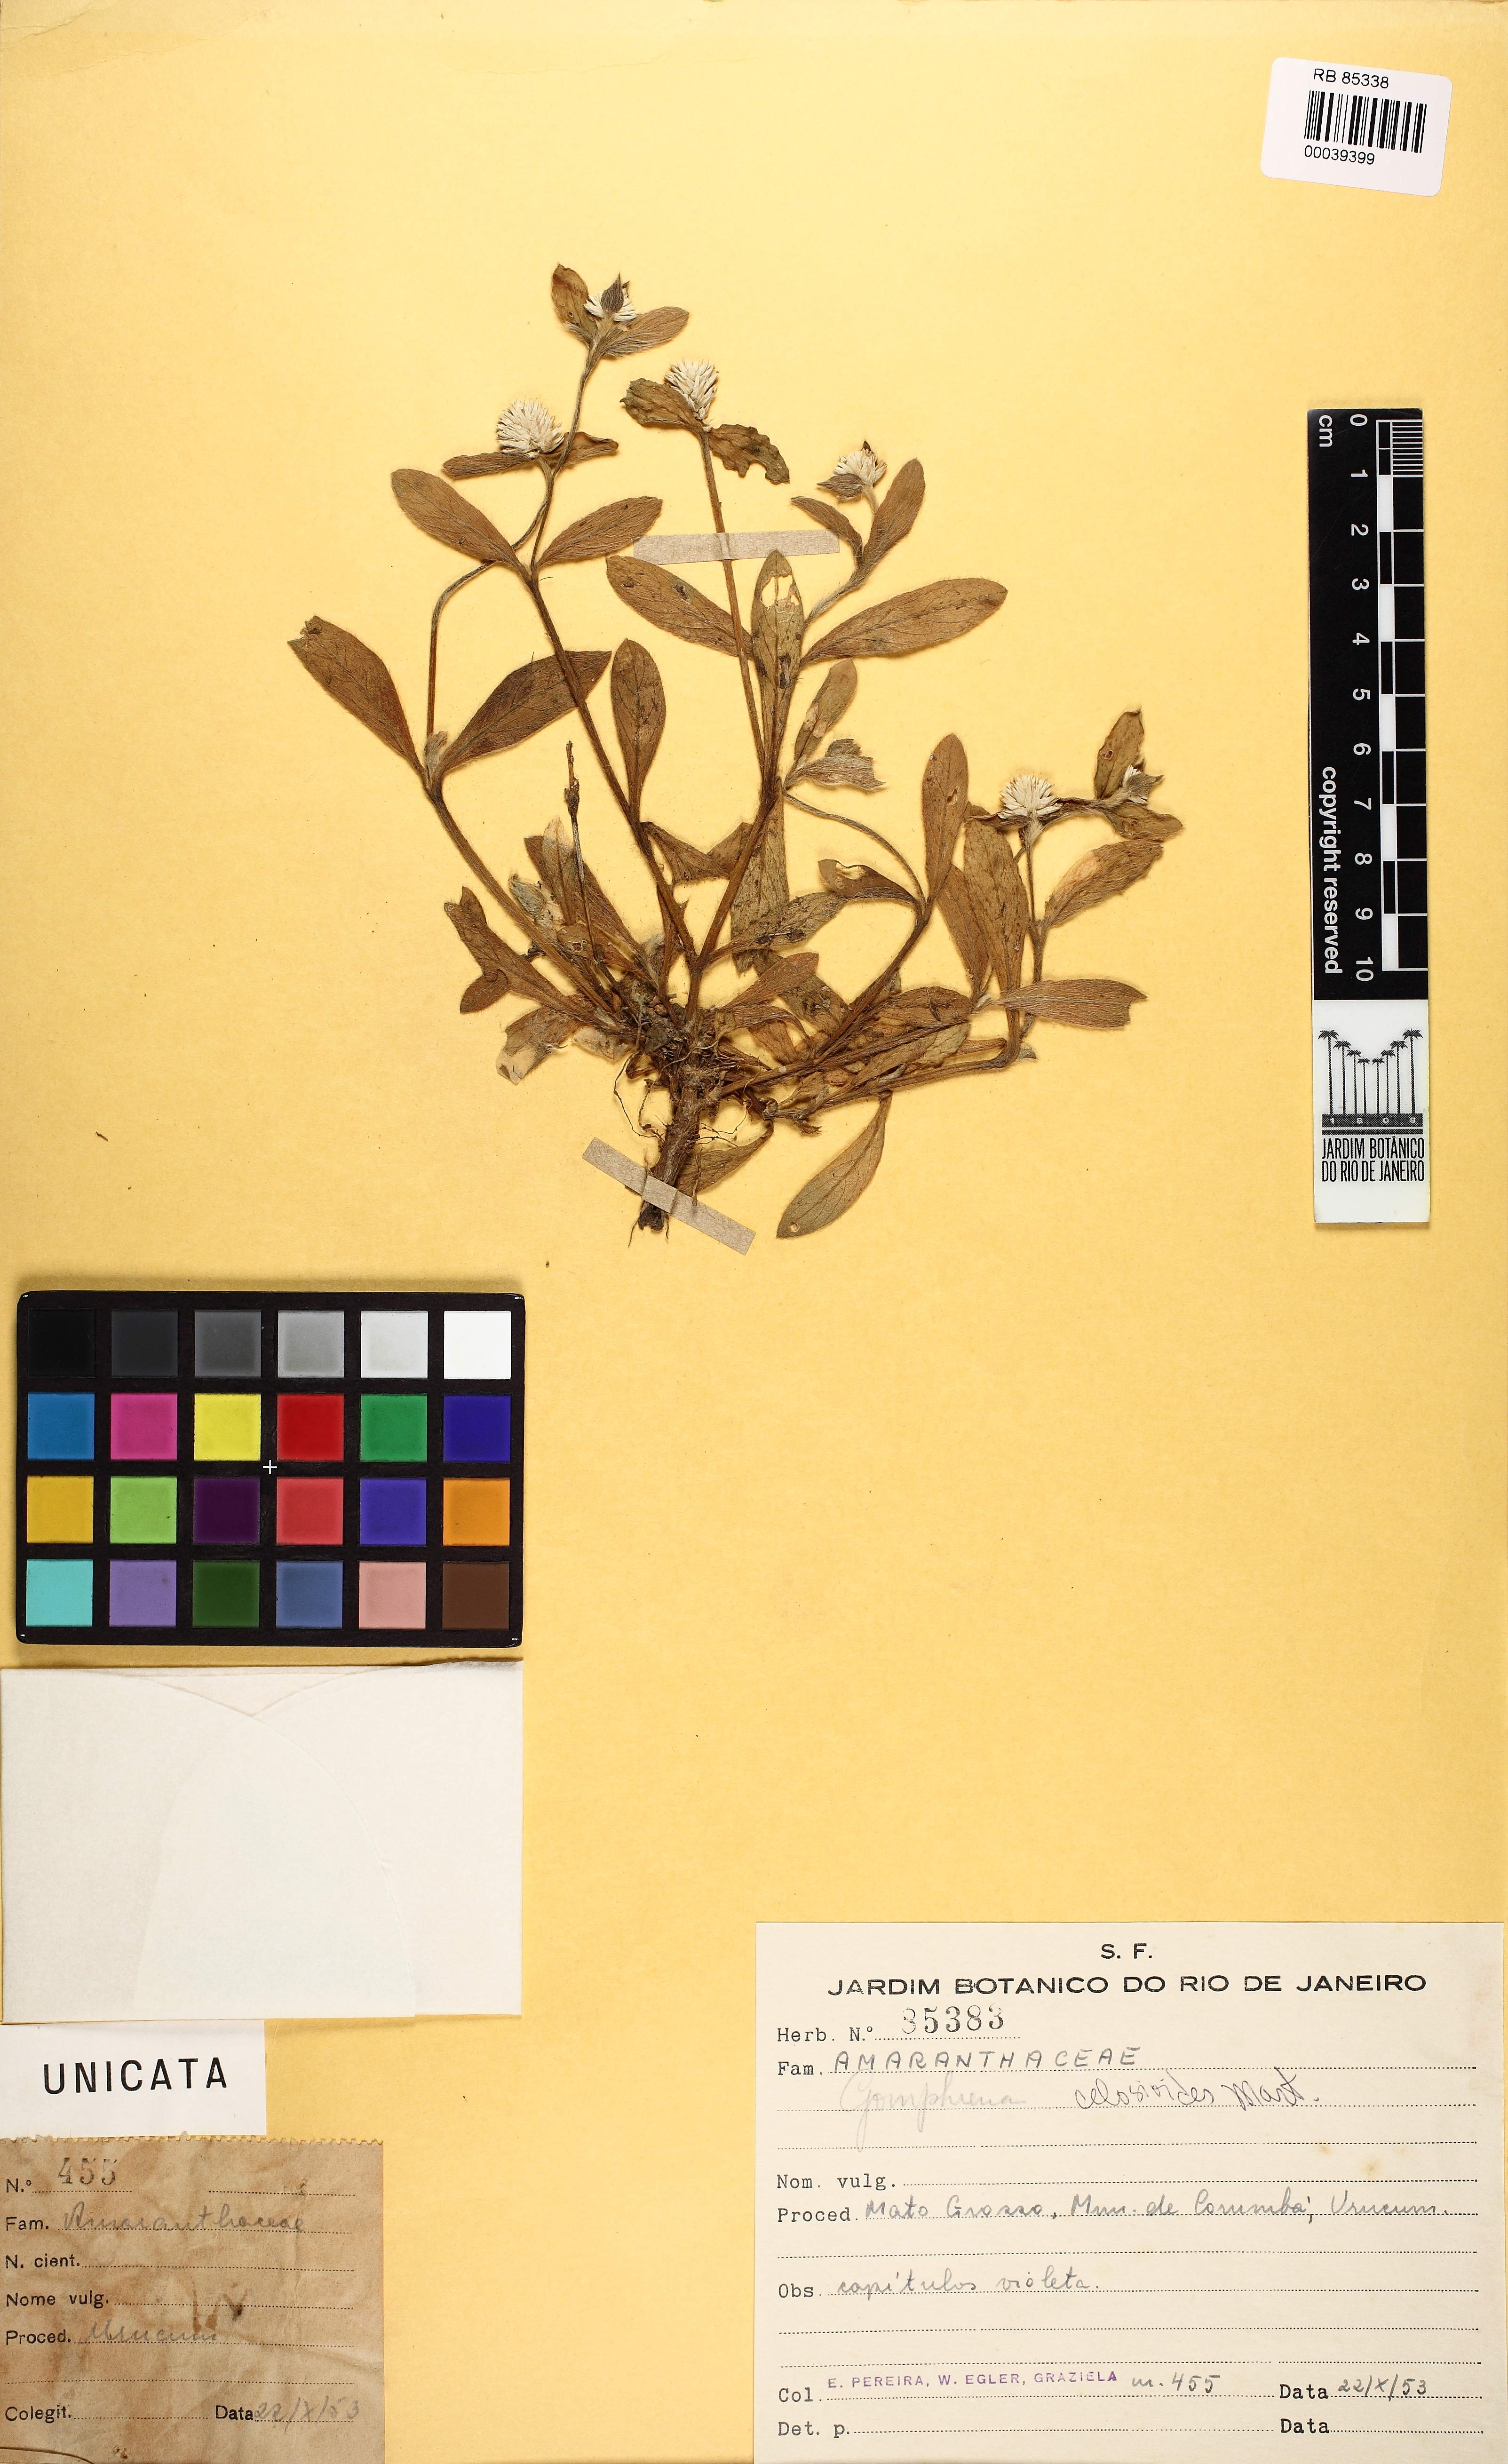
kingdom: Plantae
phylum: Tracheophyta
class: Magnoliopsida
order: Caryophyllales
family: Amaranthaceae
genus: Gomphrena
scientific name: Gomphrena celosioides
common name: Gomphrena-weed
